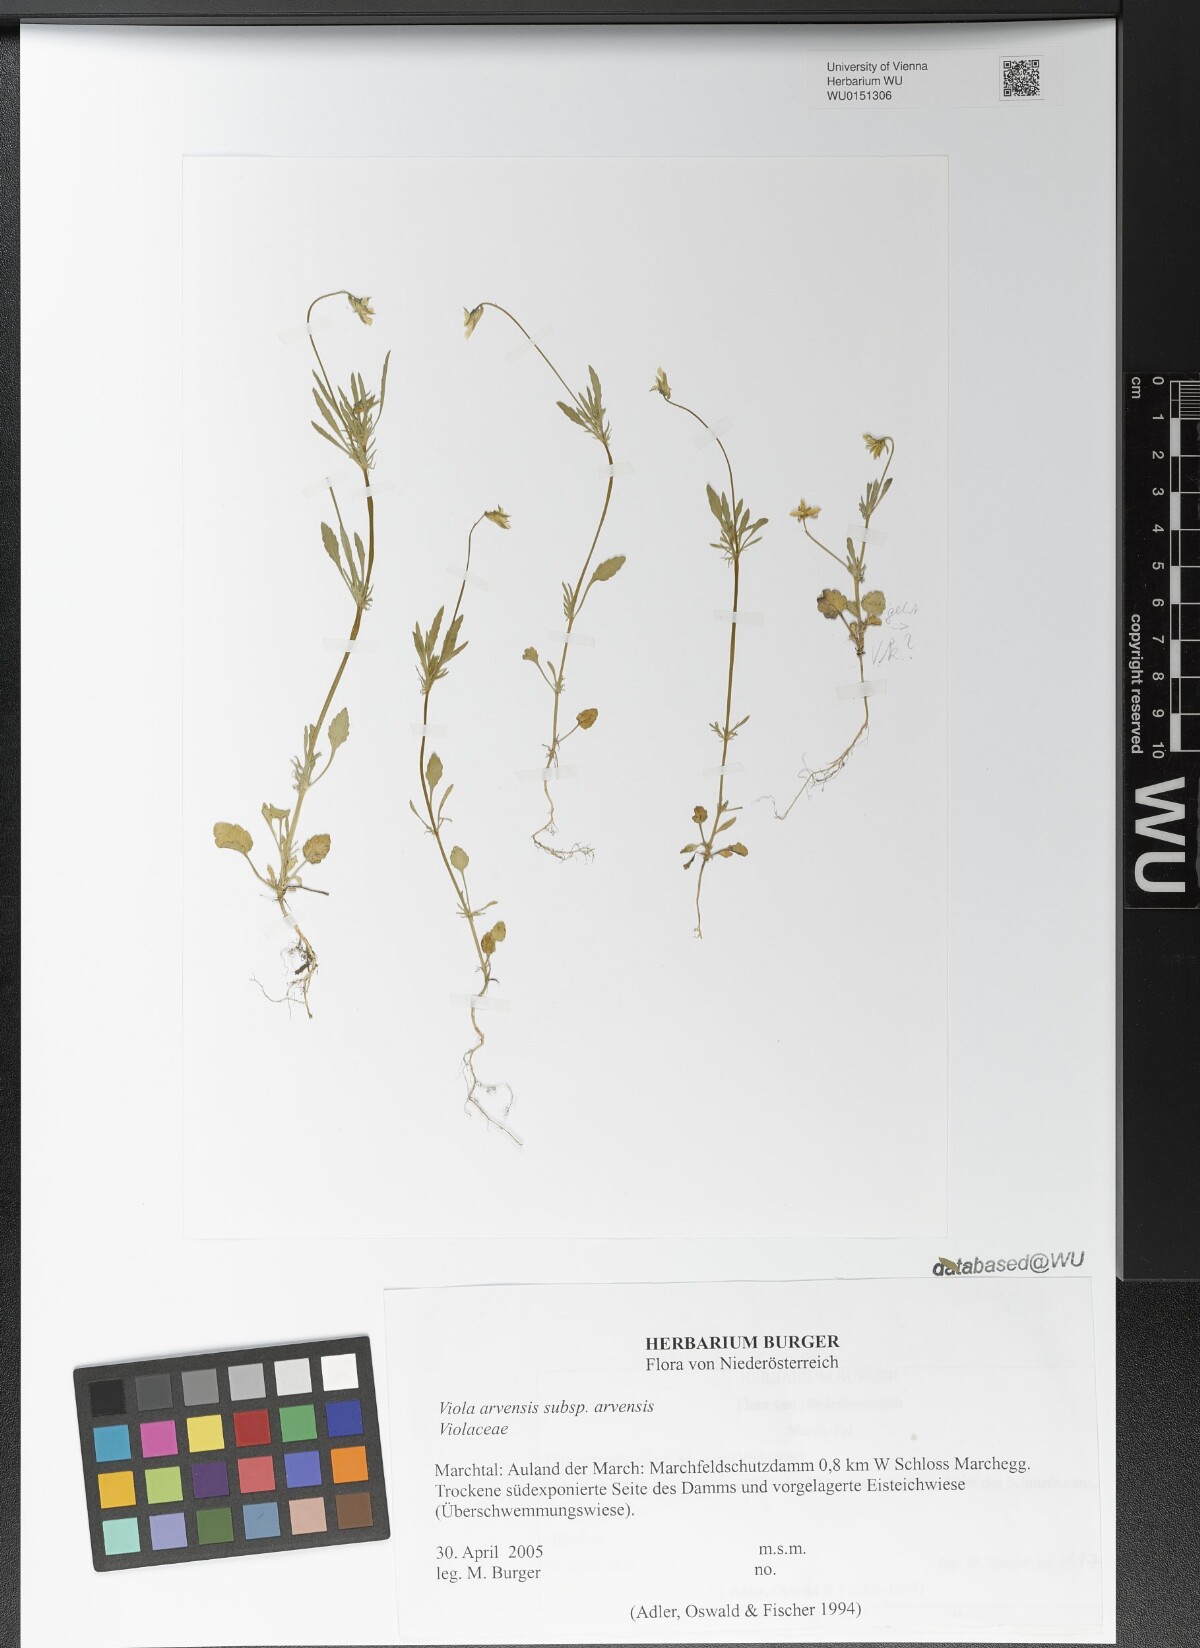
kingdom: Plantae
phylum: Tracheophyta
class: Magnoliopsida
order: Malpighiales
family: Violaceae
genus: Viola
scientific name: Viola arvensis
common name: Field pansy
